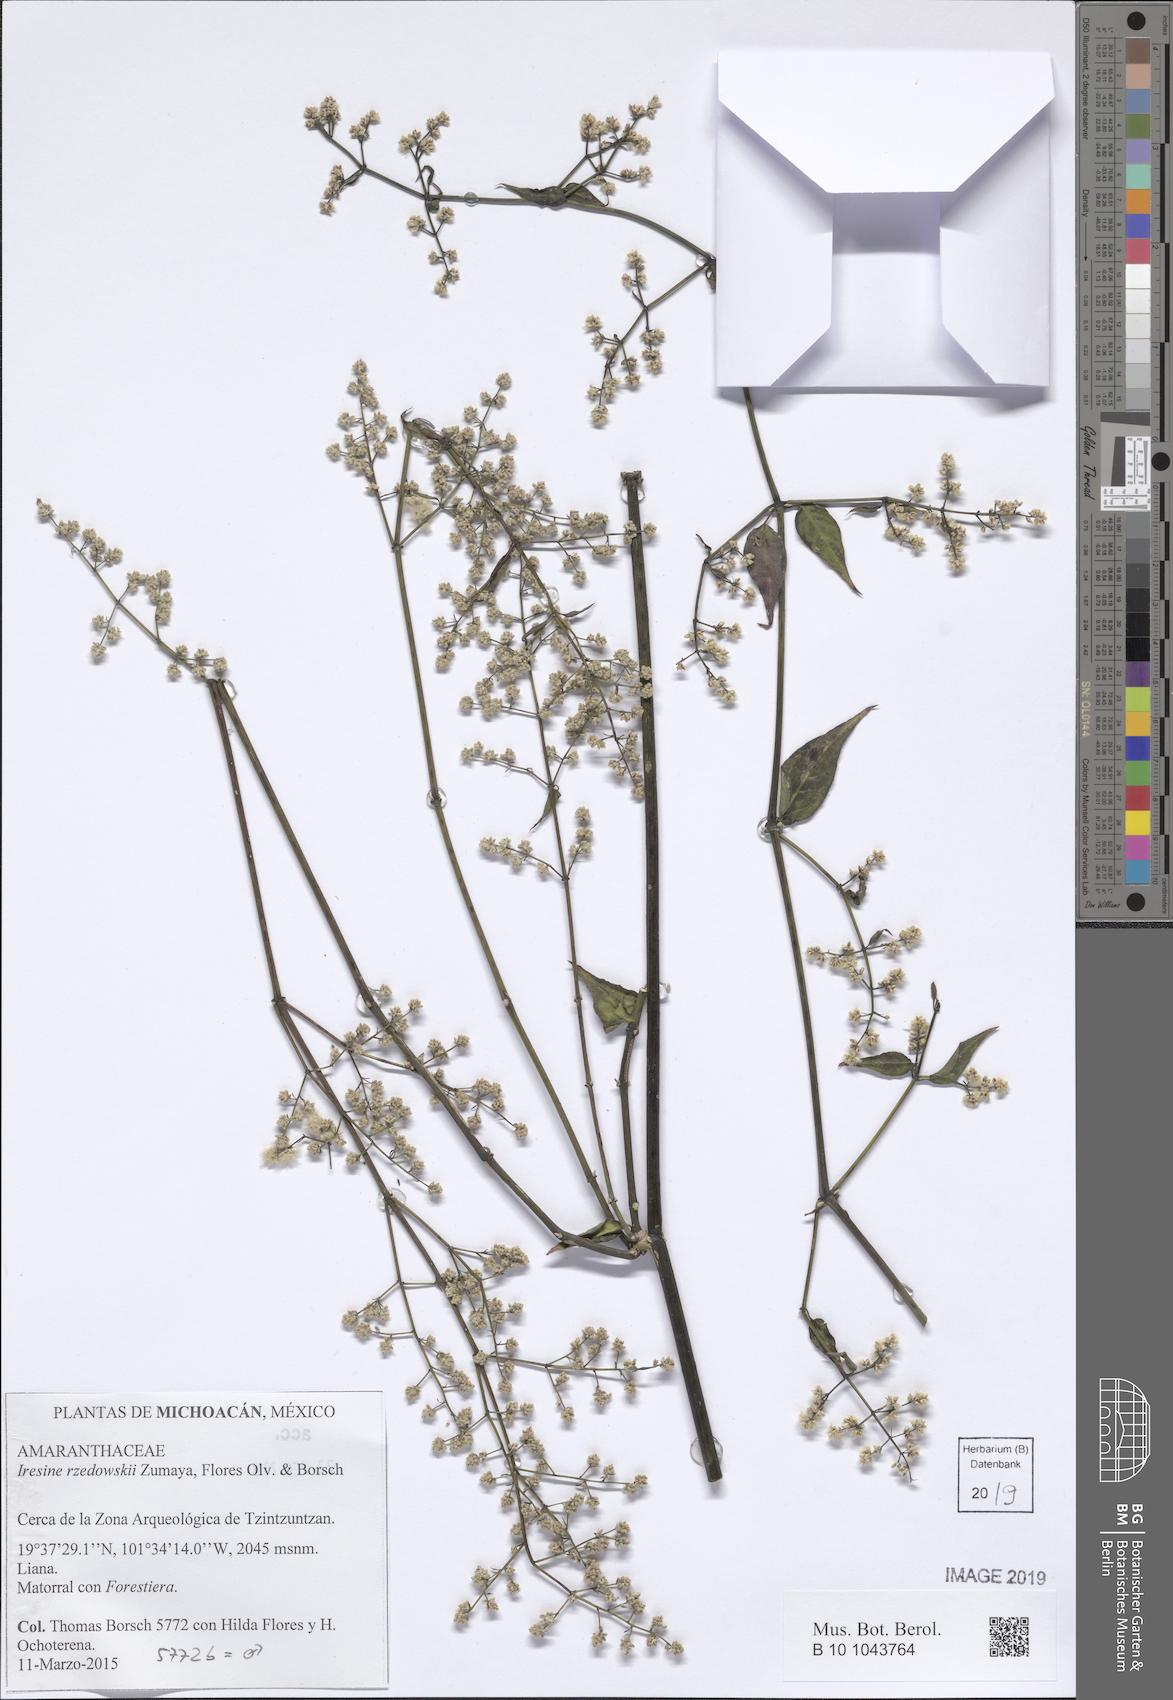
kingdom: Plantae
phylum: Tracheophyta
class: Magnoliopsida
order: Caryophyllales
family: Amaranthaceae
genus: Iresine
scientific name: Iresine rzedowskii
